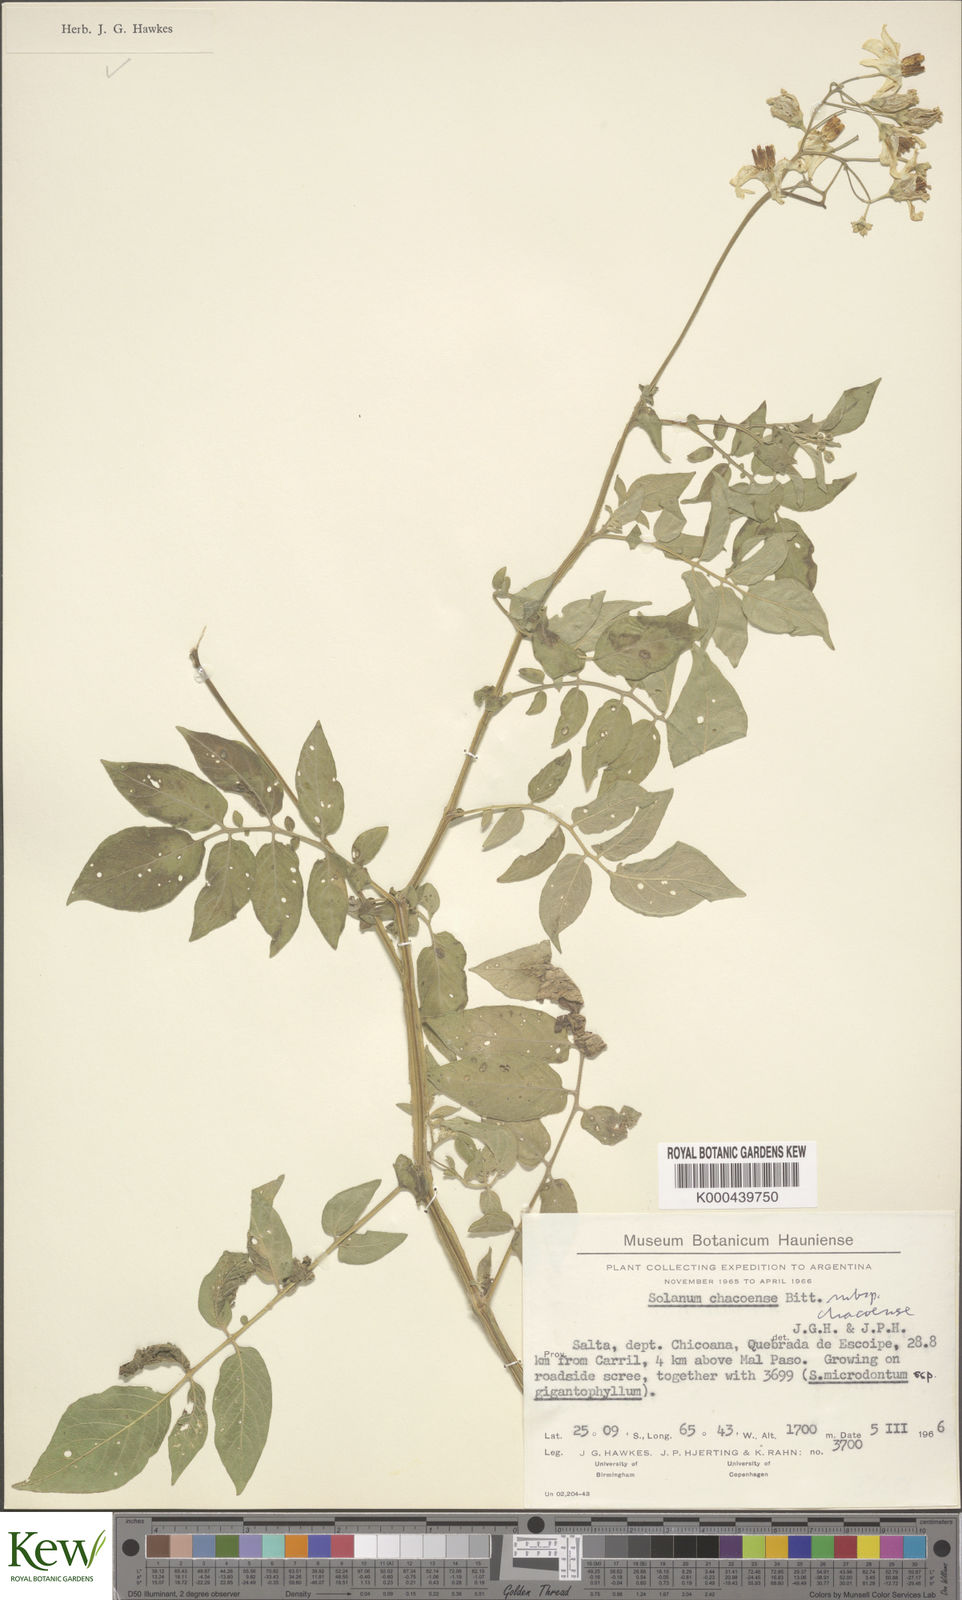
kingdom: Plantae
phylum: Tracheophyta
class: Magnoliopsida
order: Solanales
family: Solanaceae
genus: Solanum
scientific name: Solanum chacoense
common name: Chaco potato
